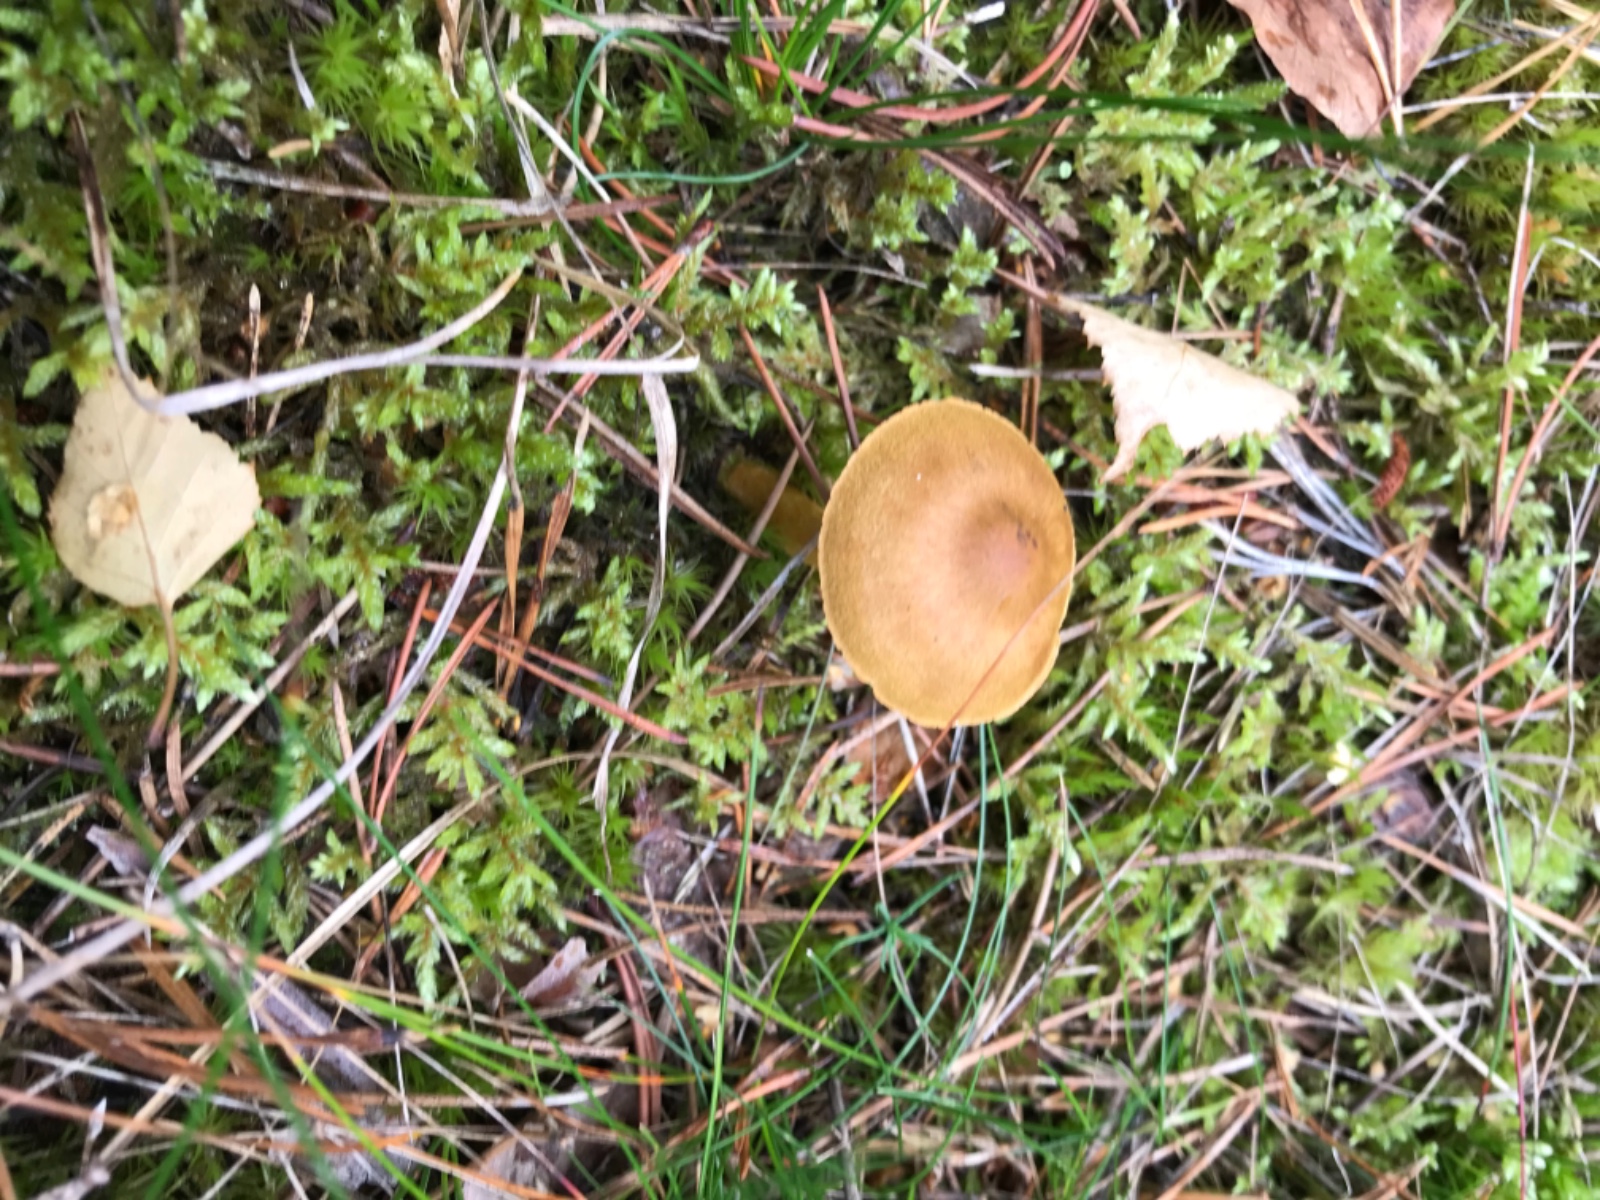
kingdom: Fungi
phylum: Basidiomycota
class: Agaricomycetes
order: Agaricales
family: Cortinariaceae
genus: Cortinarius
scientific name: Cortinarius
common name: cinnoberbladet slørhat
